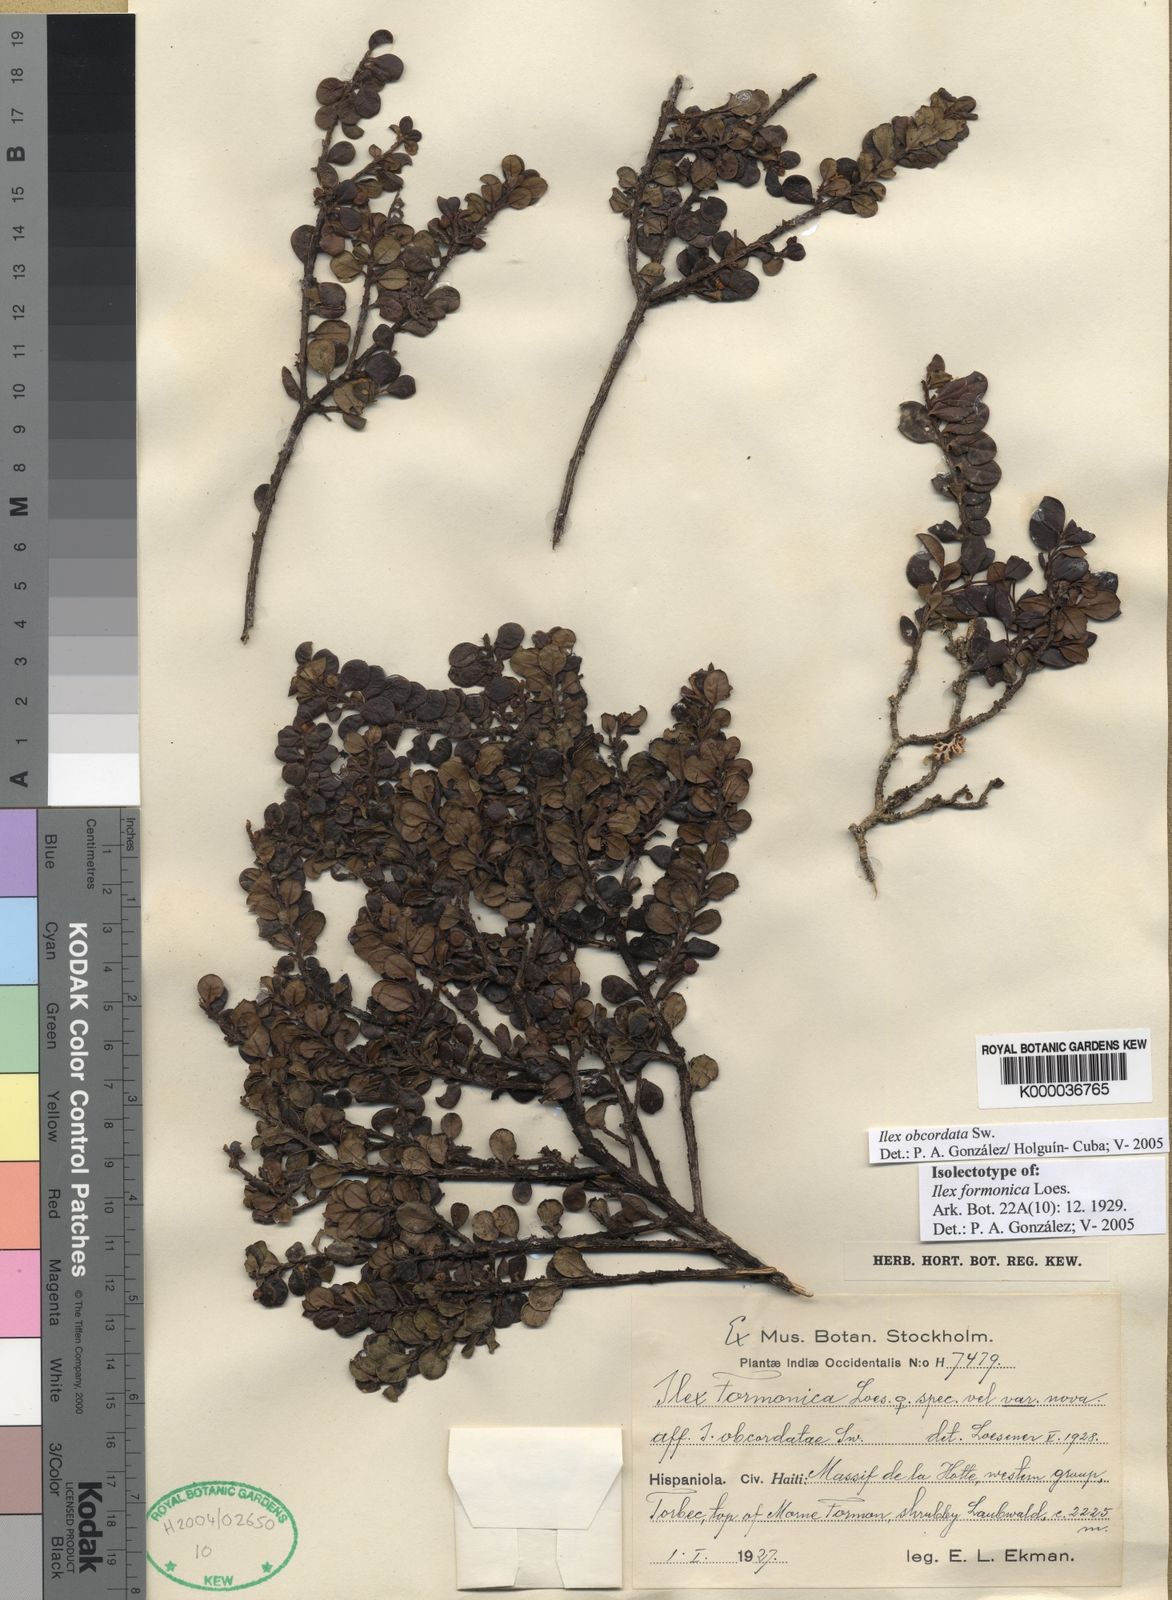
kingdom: Plantae
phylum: Tracheophyta
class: Magnoliopsida
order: Aquifoliales
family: Aquifoliaceae
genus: Ilex
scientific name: Ilex obcordata
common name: Sintenis' holly
